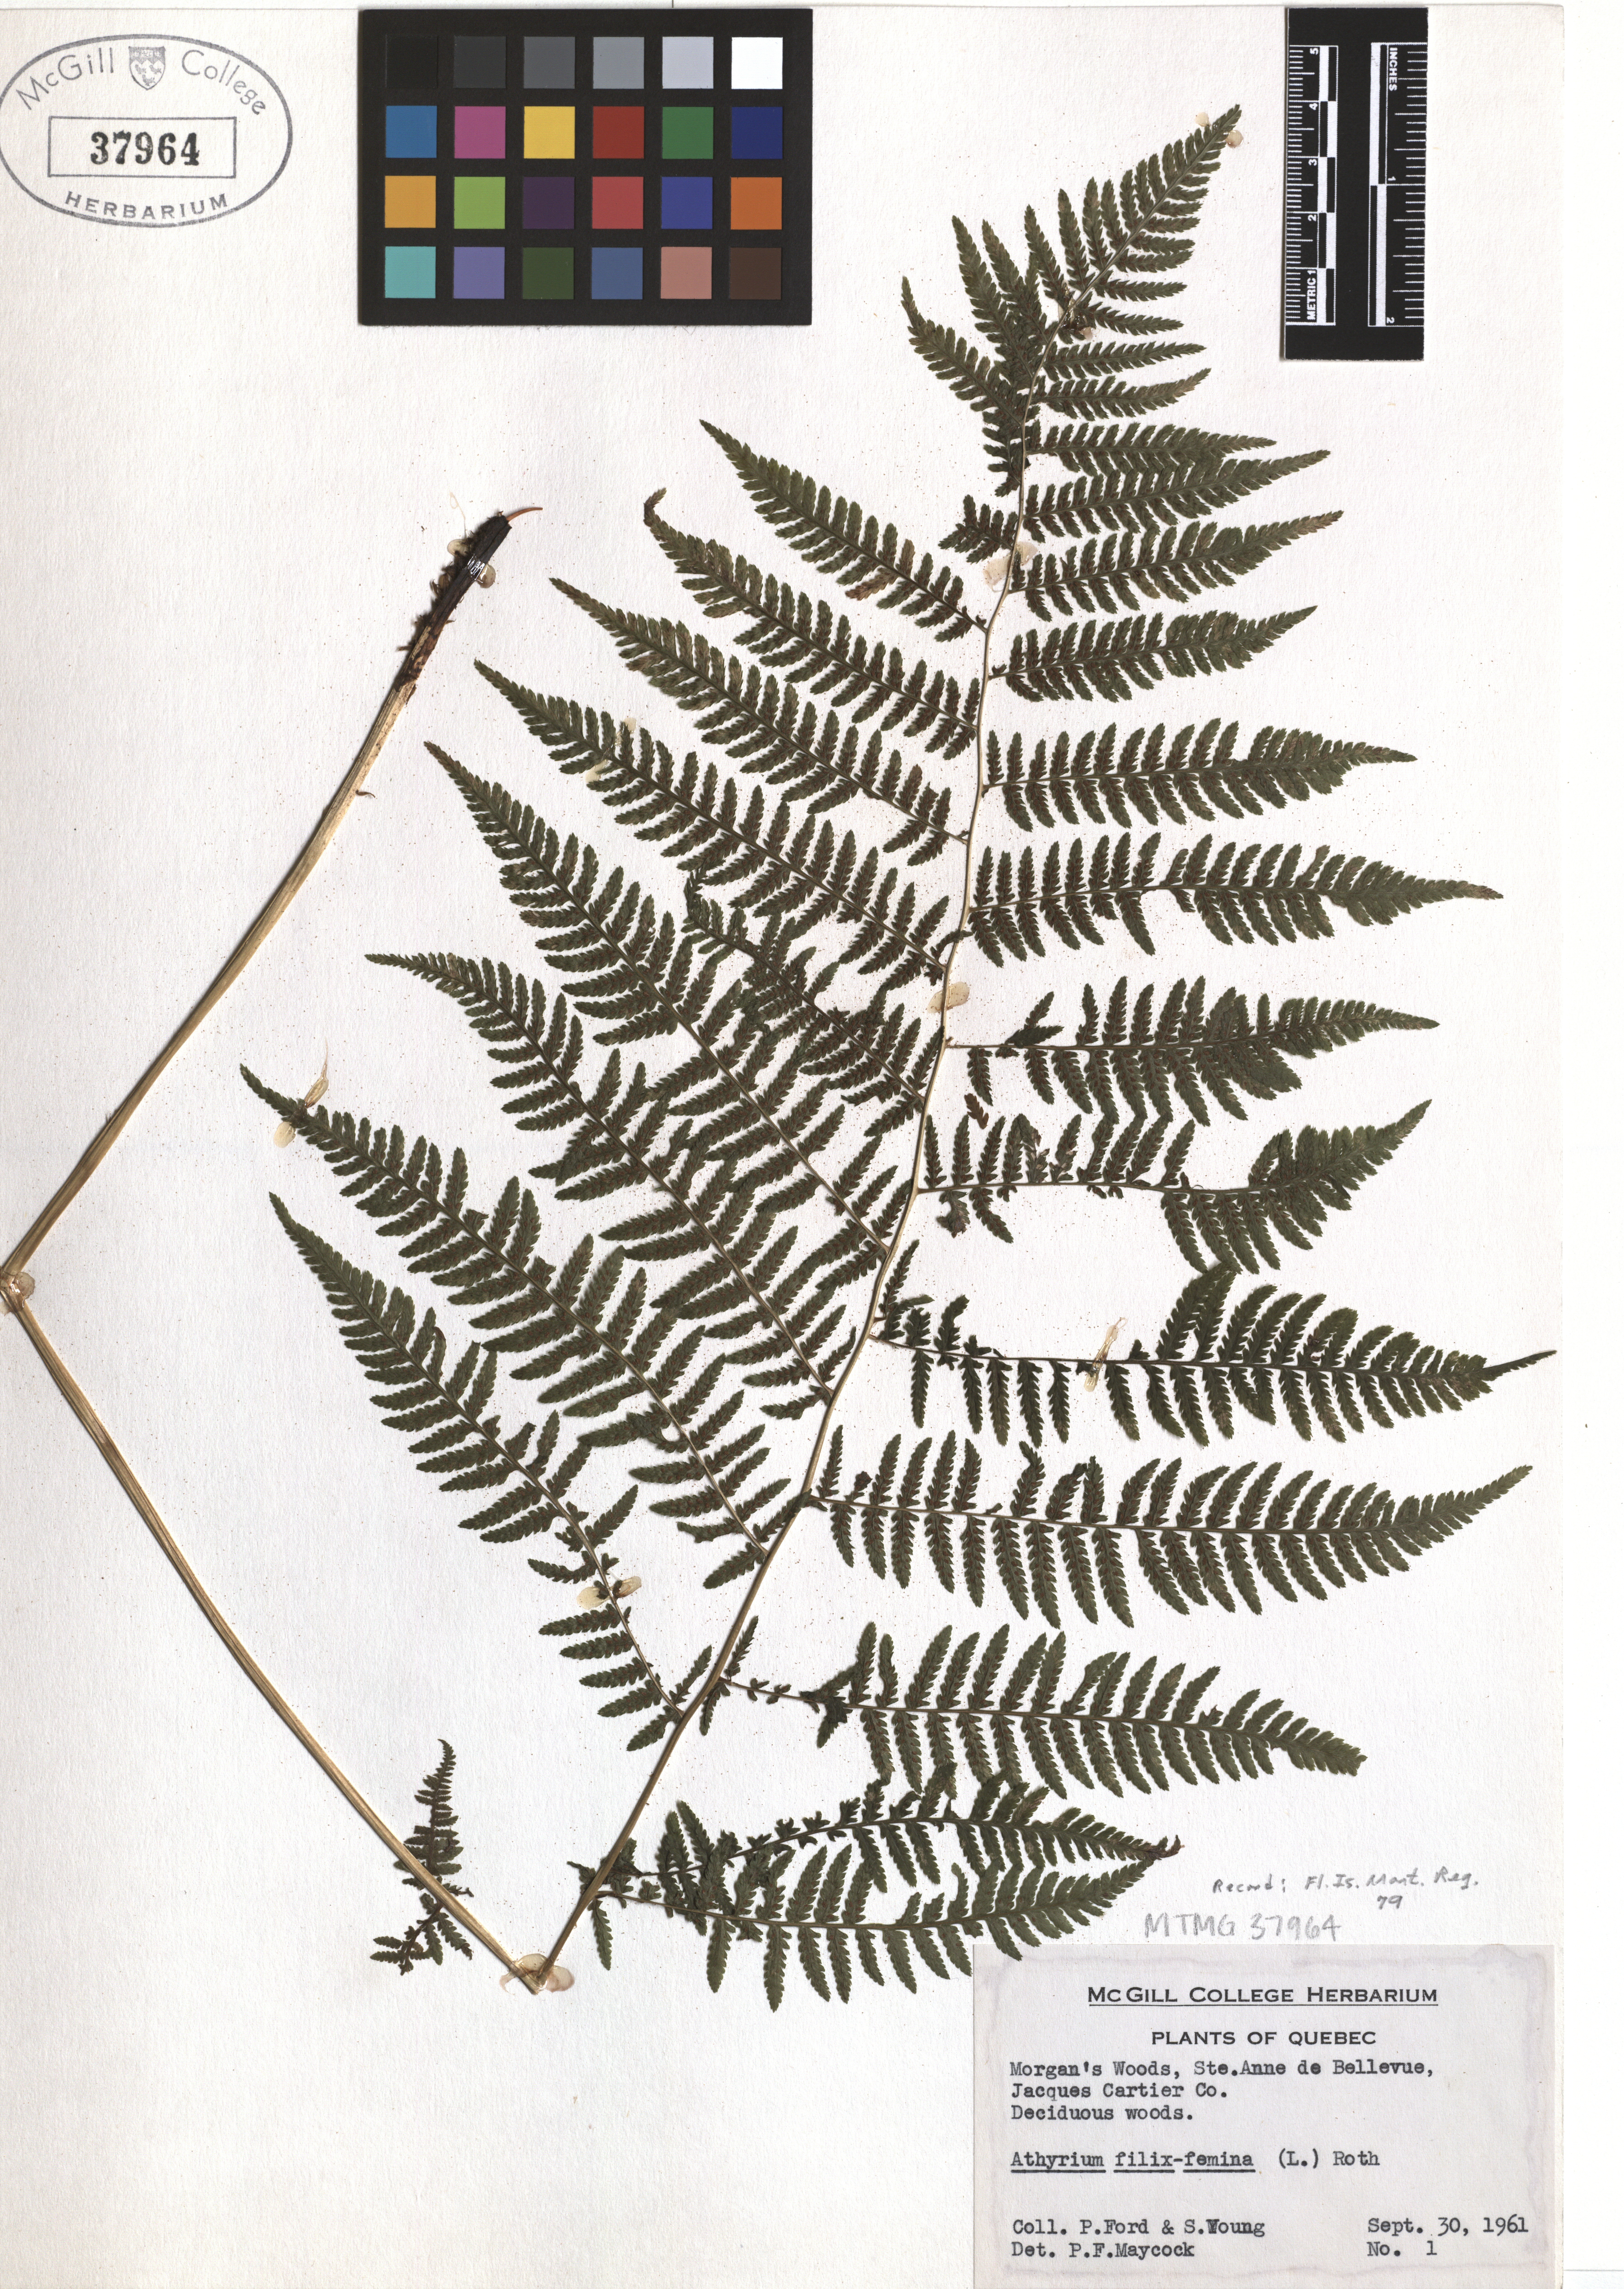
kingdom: Plantae
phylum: Tracheophyta
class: Polypodiopsida
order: Polypodiales
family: Athyriaceae
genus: Athyrium
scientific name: Athyrium filix-femina
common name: Lady fern
